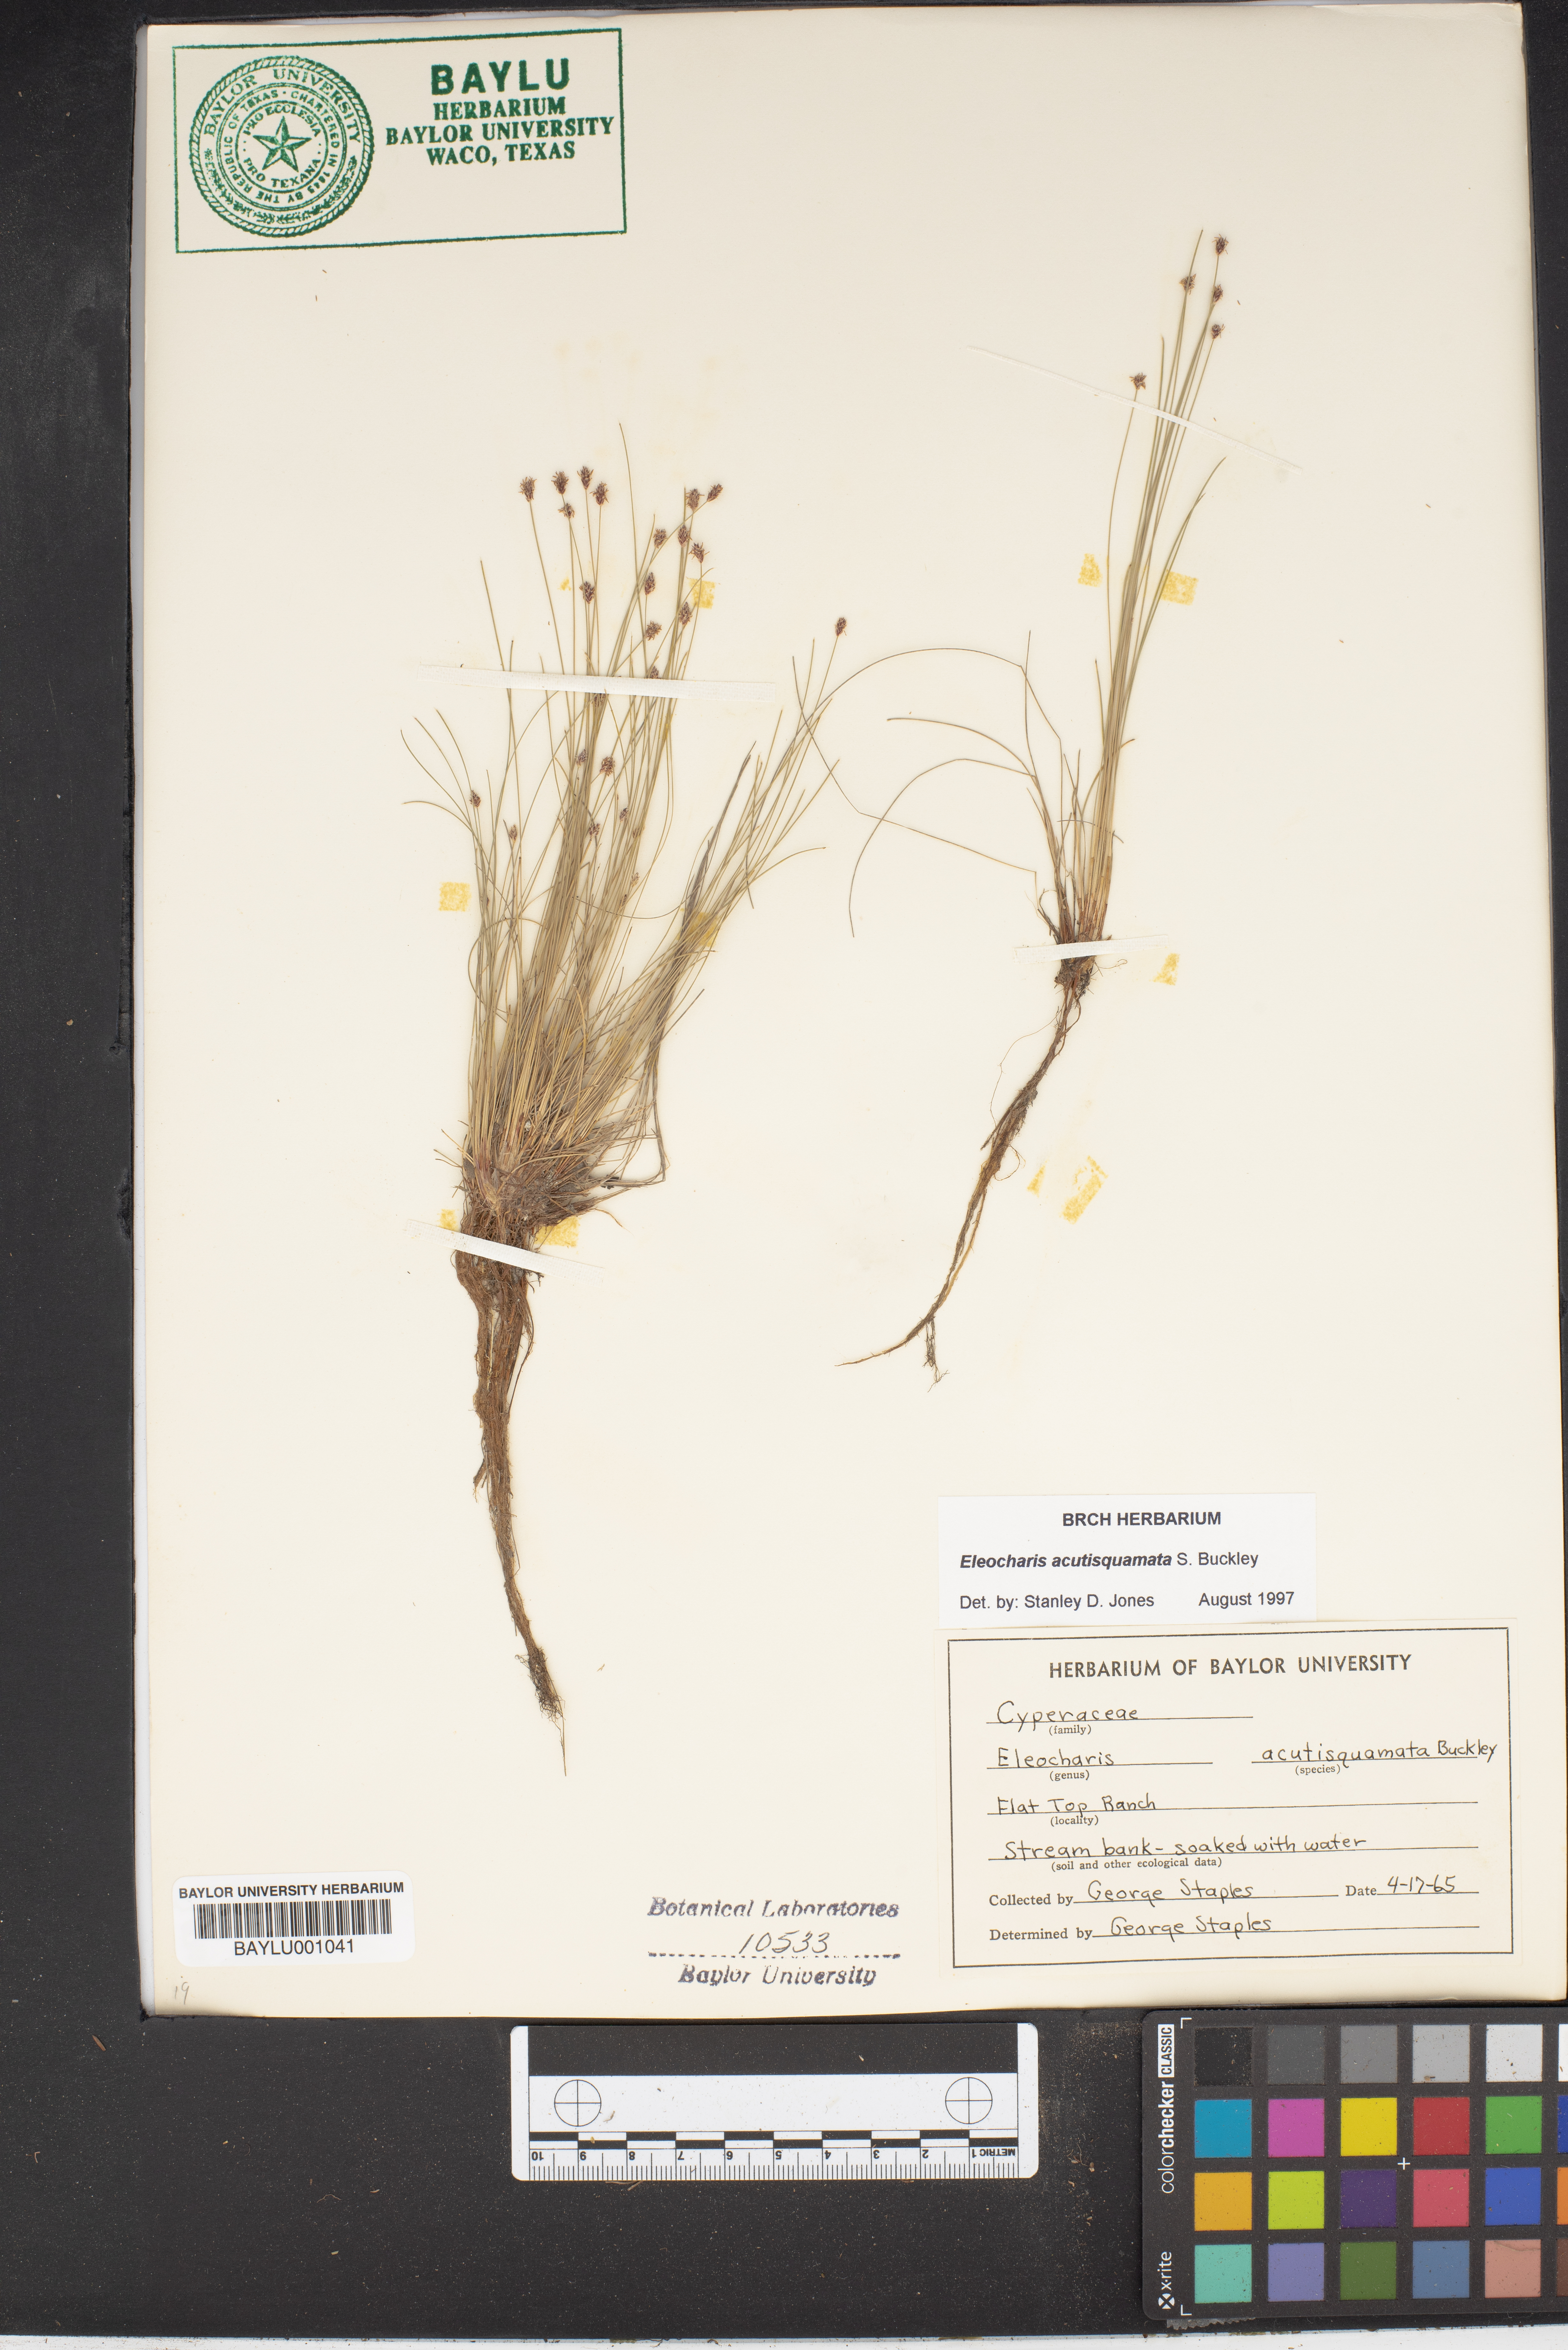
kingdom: Plantae
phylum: Tracheophyta
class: Liliopsida
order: Poales
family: Cyperaceae
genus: Eleocharis
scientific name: Eleocharis compressa
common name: Flat-stem spike-rush
